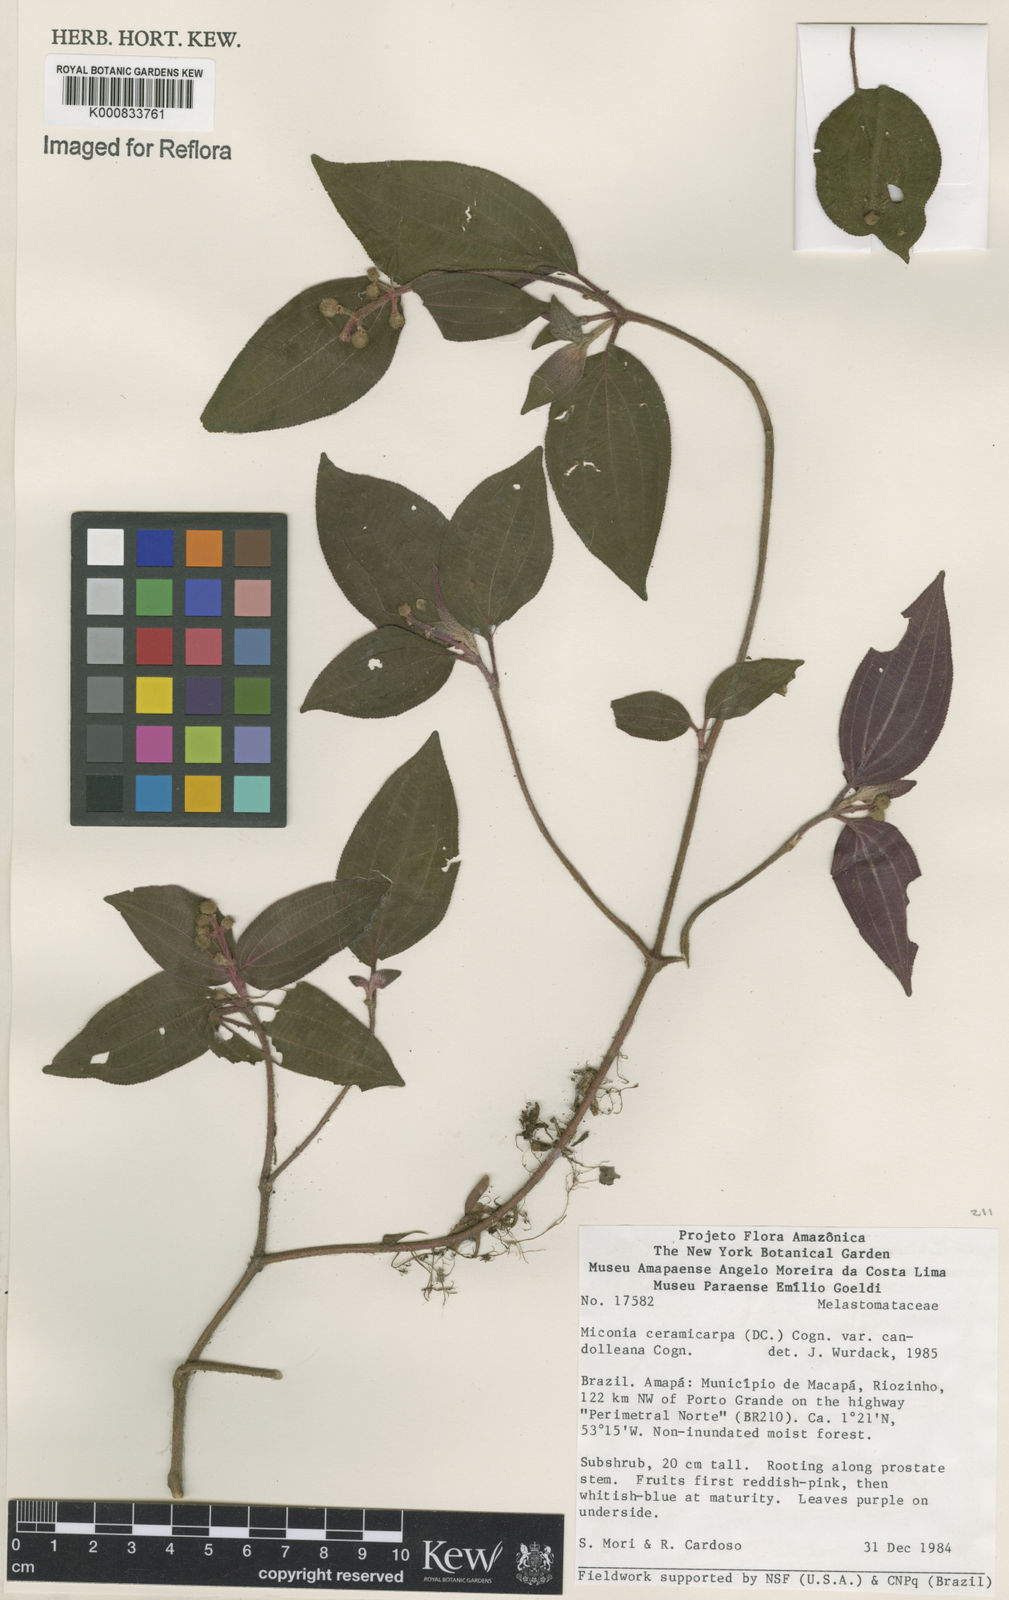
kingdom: Plantae
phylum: Tracheophyta
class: Magnoliopsida
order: Myrtales
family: Melastomataceae
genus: Miconia
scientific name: Miconia ceramicarpa
